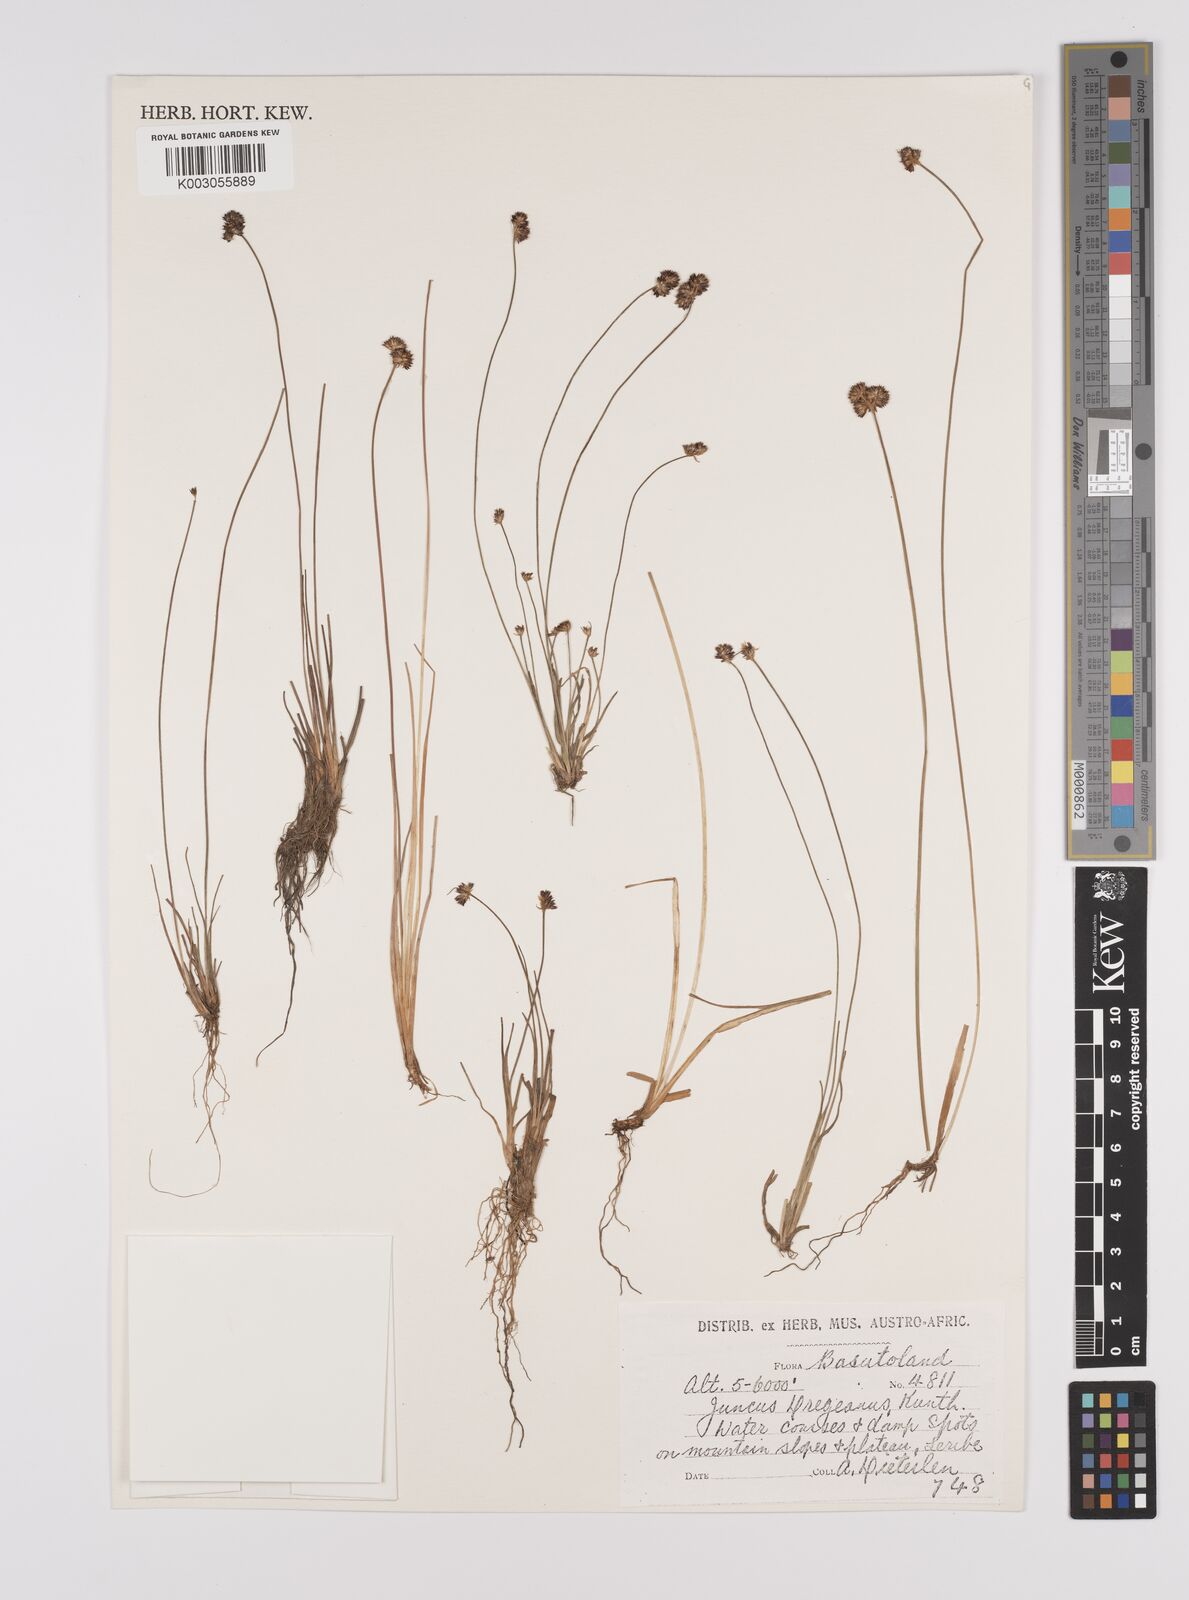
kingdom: Plantae
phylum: Tracheophyta
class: Liliopsida
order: Poales
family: Juncaceae
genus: Juncus
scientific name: Juncus dregeanus
